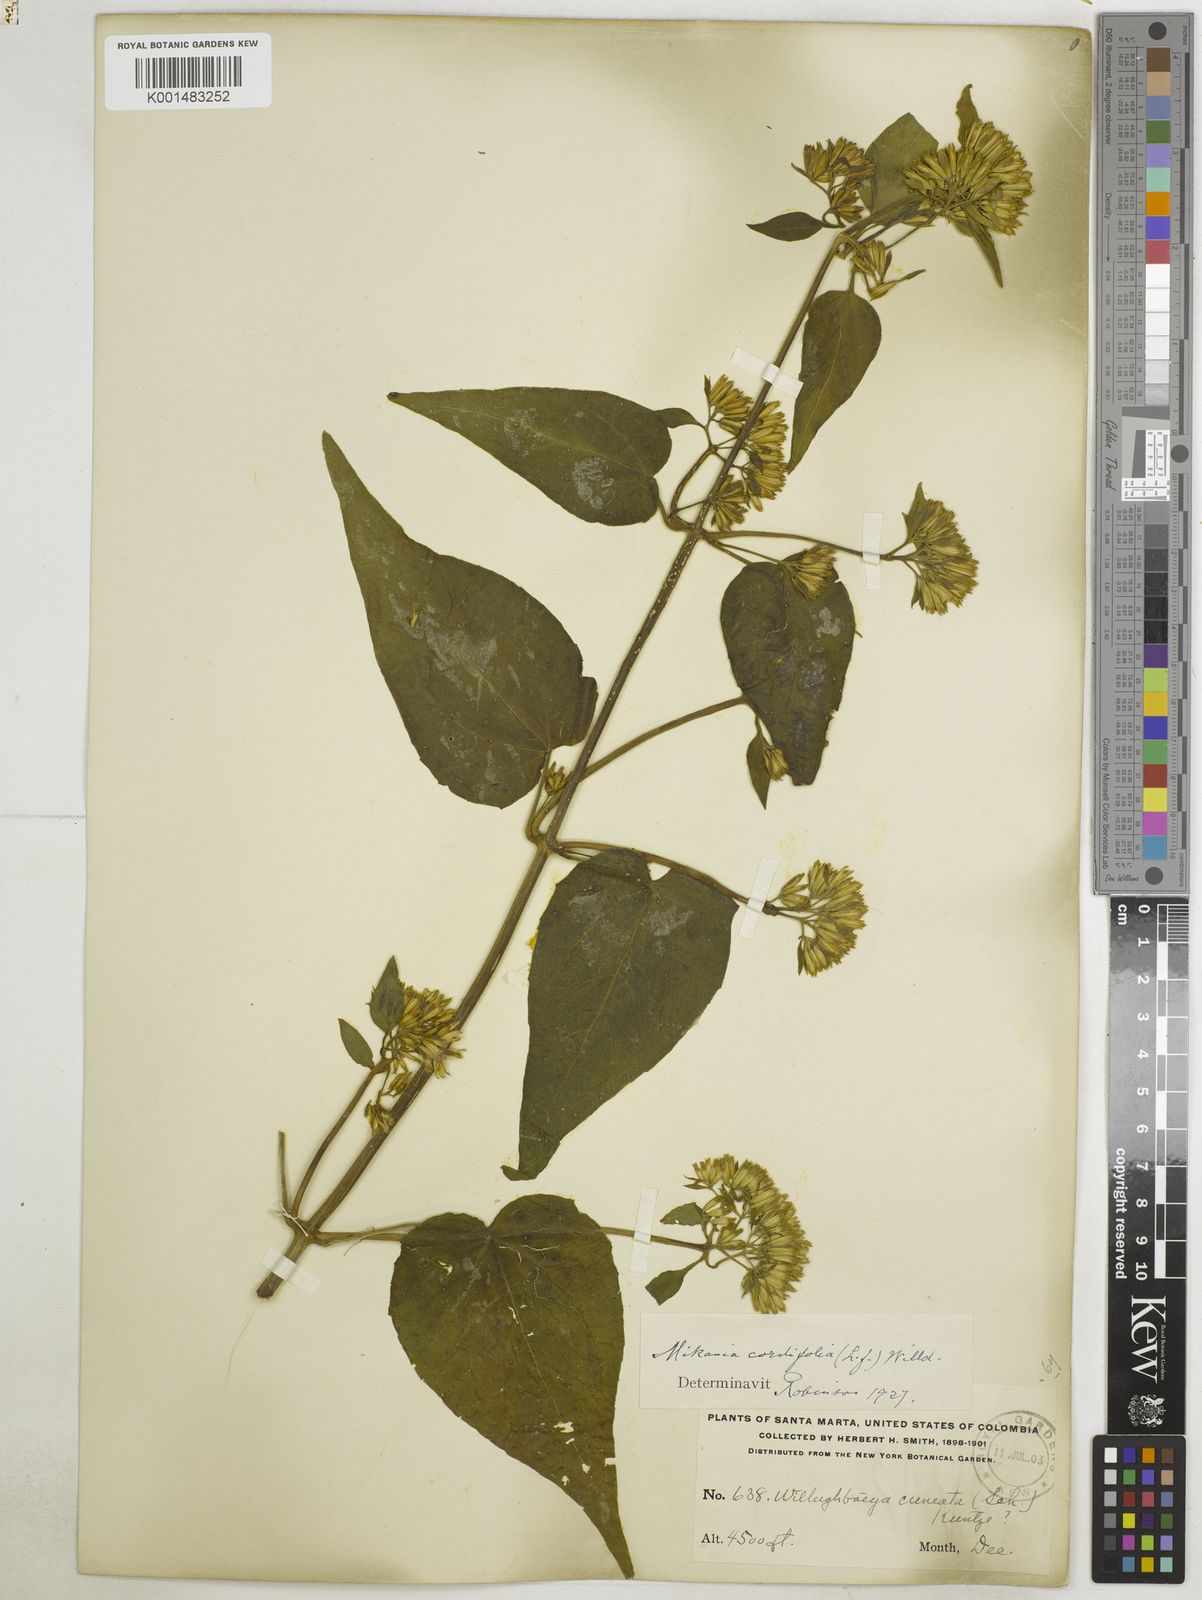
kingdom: Plantae
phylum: Tracheophyta
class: Magnoliopsida
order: Asterales
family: Asteraceae
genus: Mikania
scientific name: Mikania cordifolia
